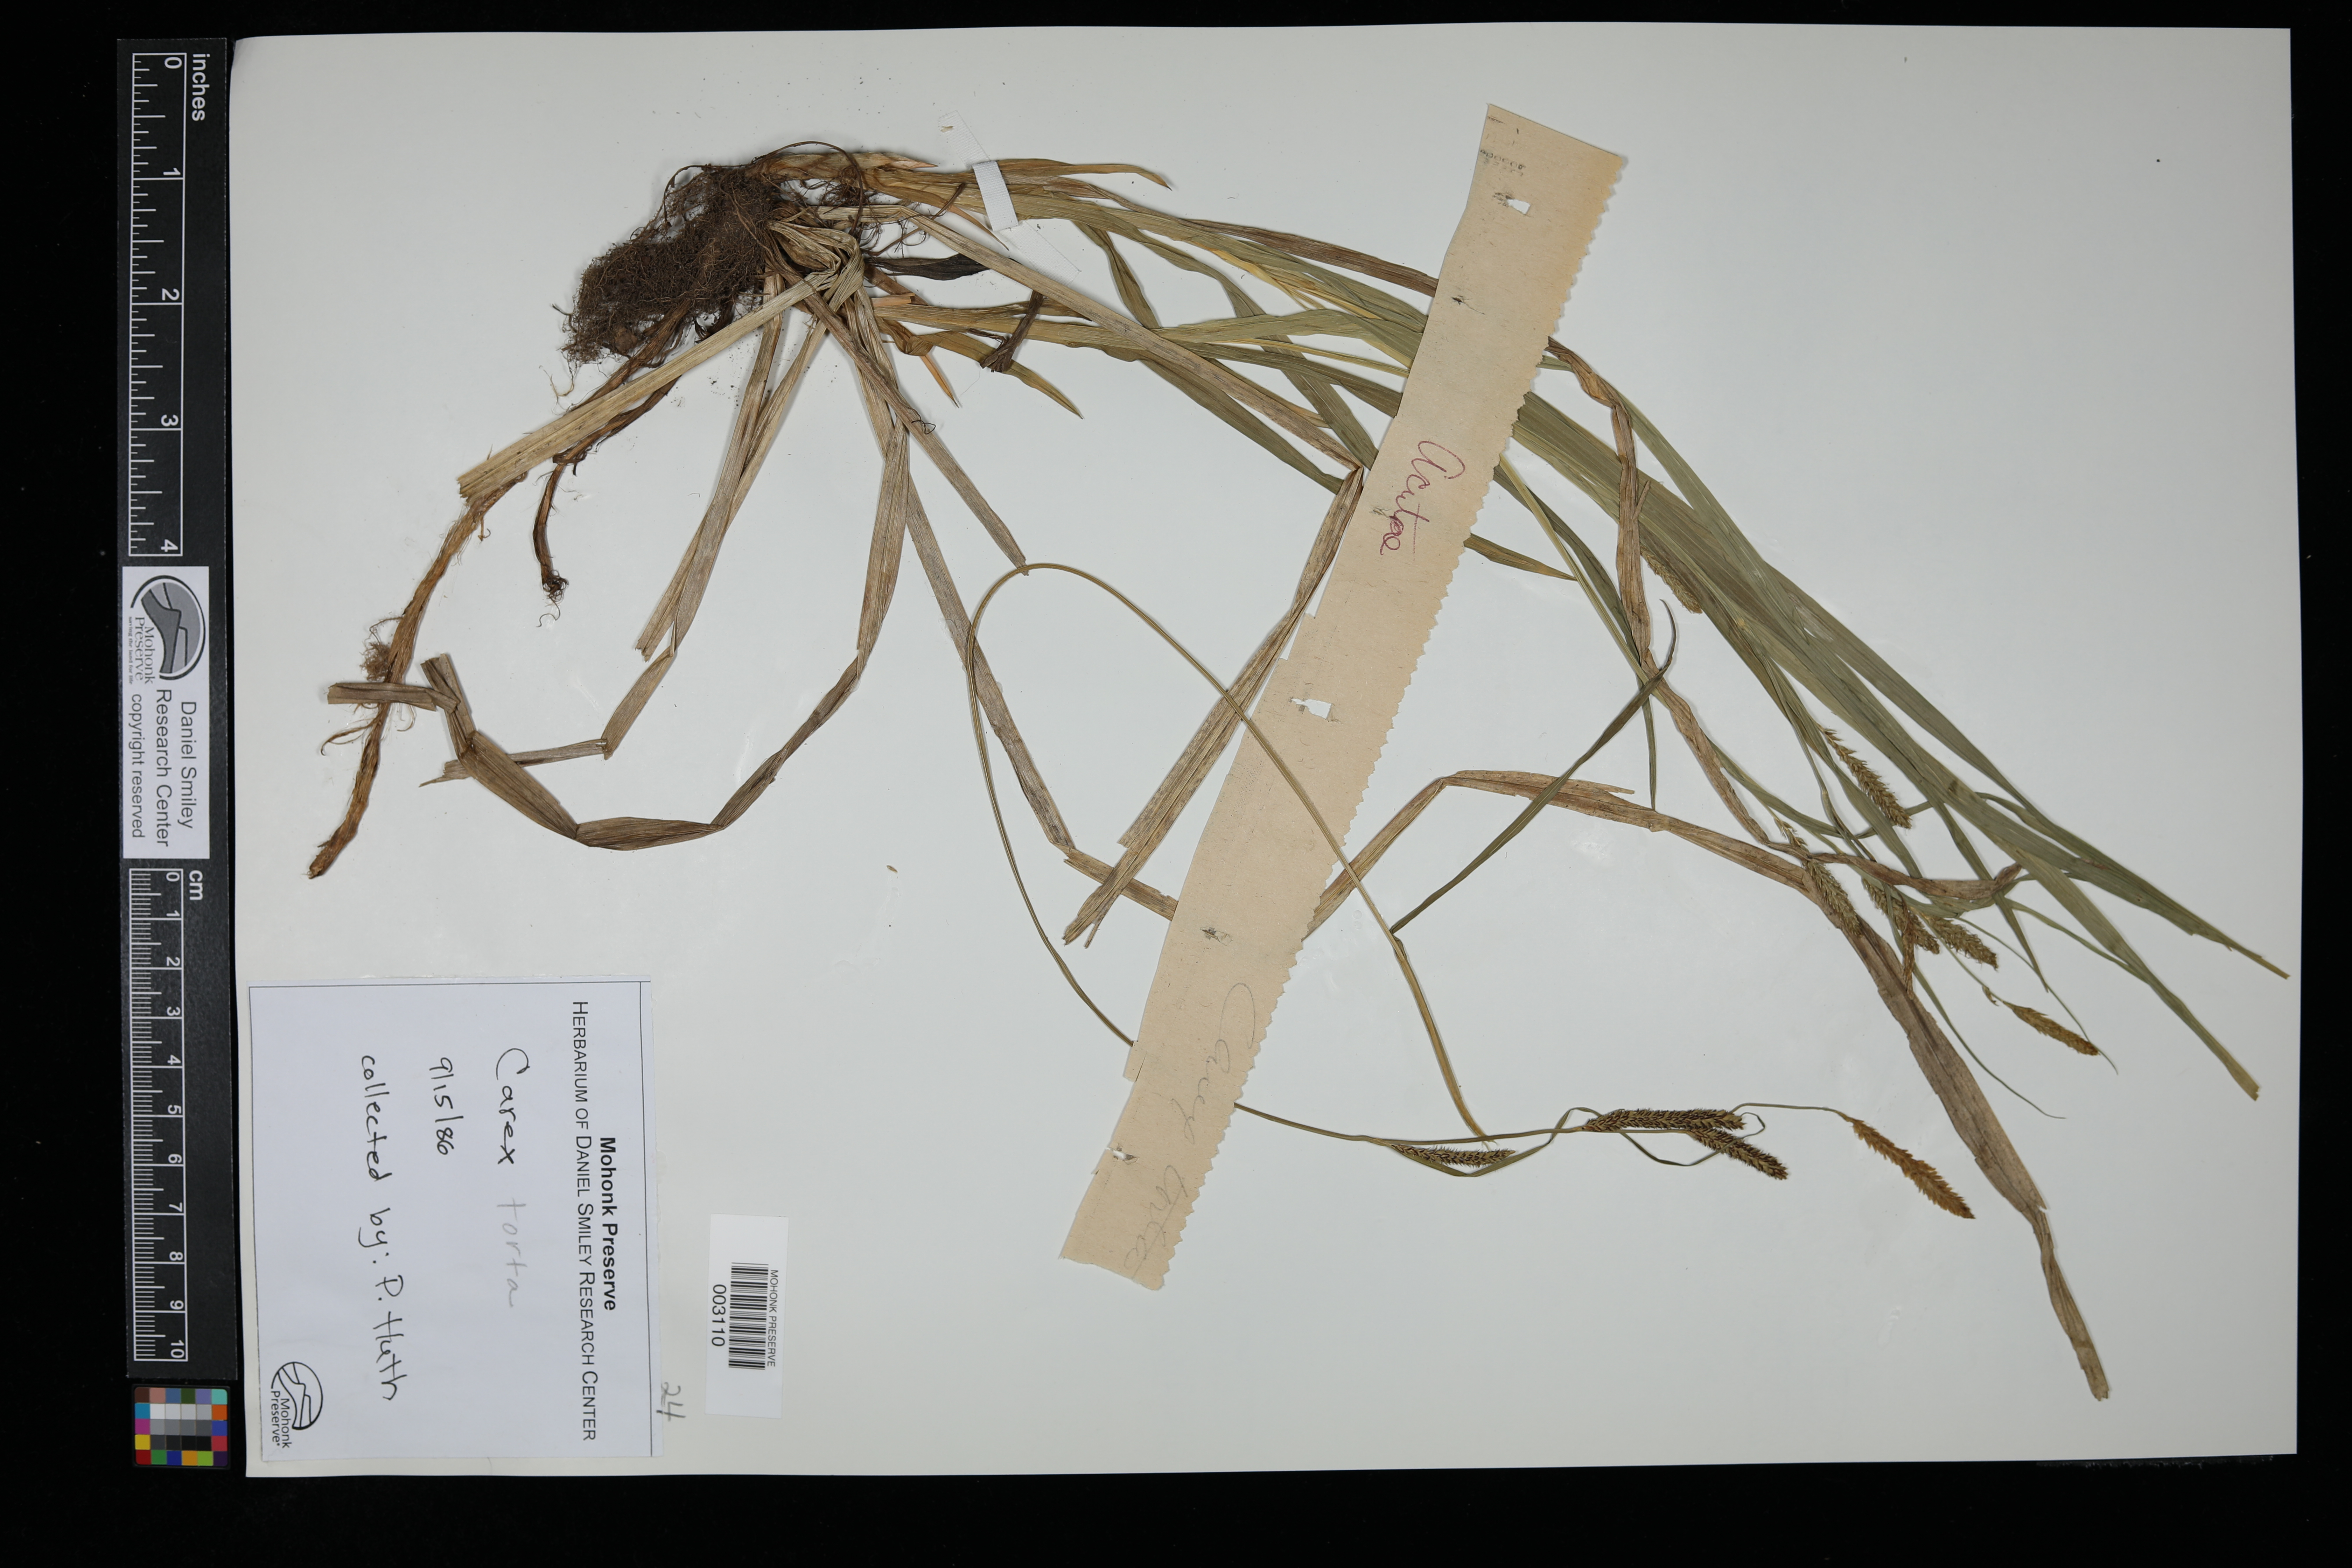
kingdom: Plantae
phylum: Tracheophyta
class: Liliopsida
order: Poales
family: Cyperaceae
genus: Carex
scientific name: Carex torta
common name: Twisted sedge
